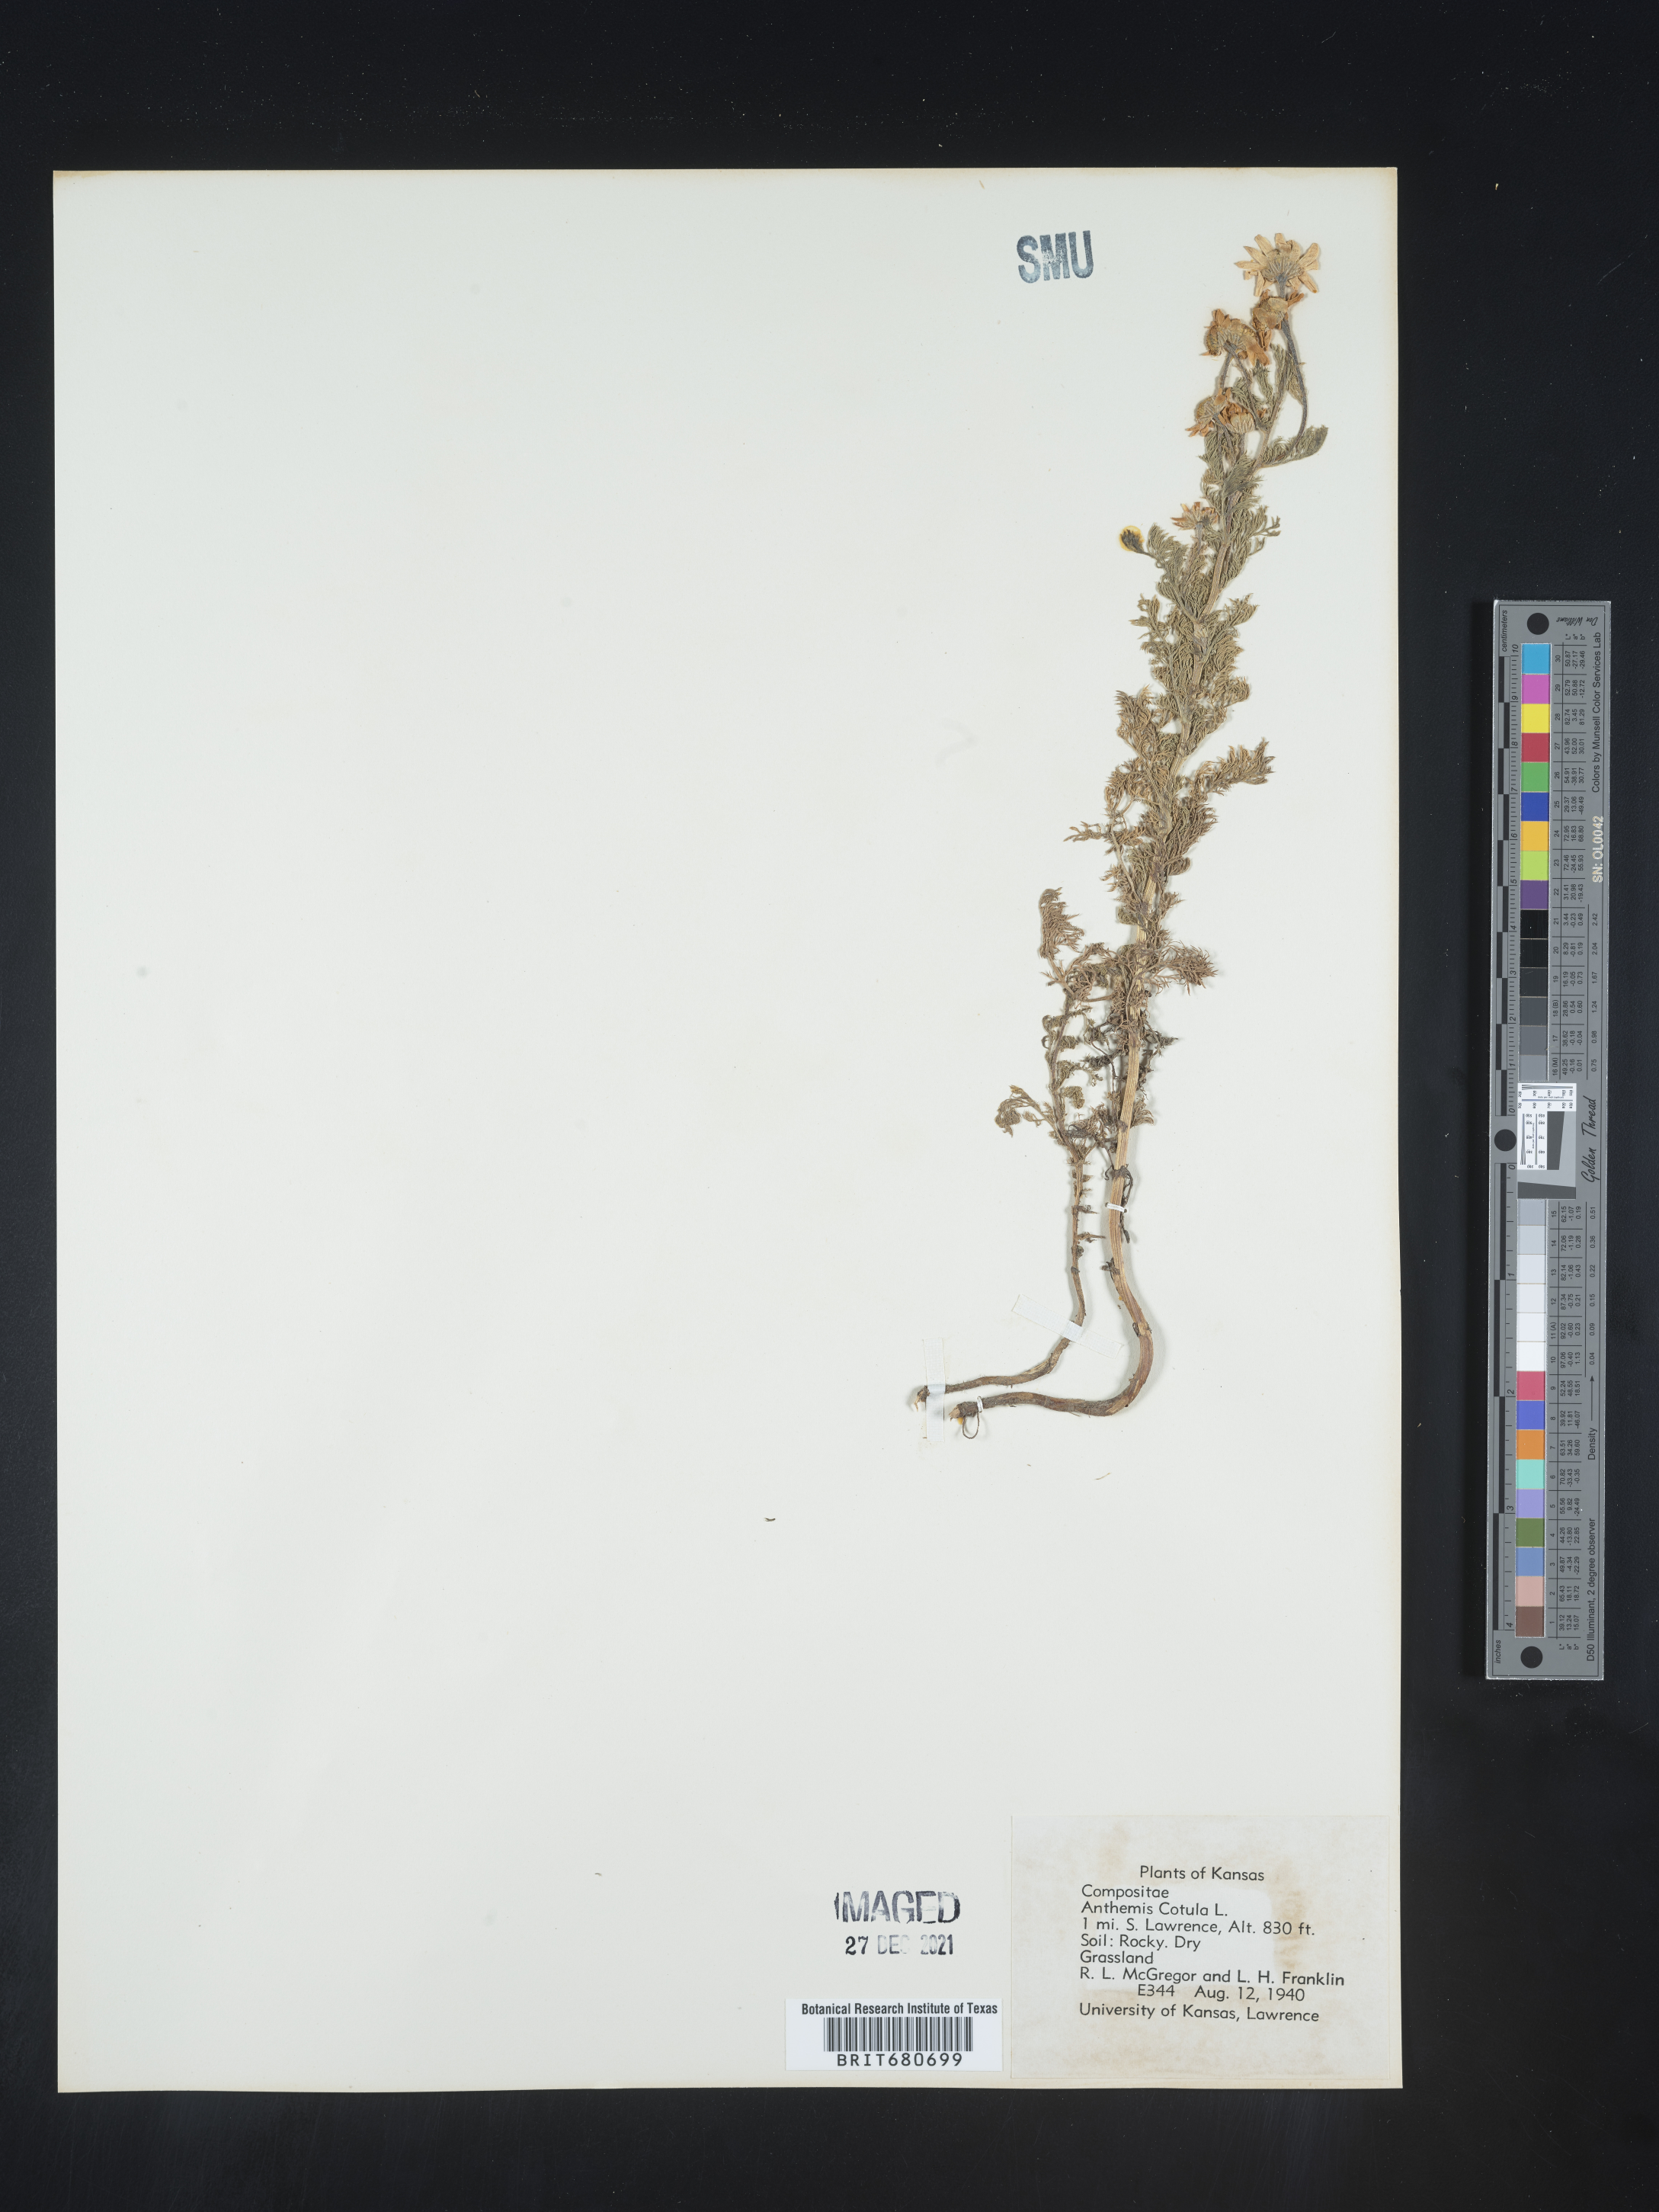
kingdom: Plantae
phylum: Tracheophyta
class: Magnoliopsida
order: Asterales
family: Asteraceae
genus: Anthemis
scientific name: Anthemis cotula
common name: Stinking chamomile
